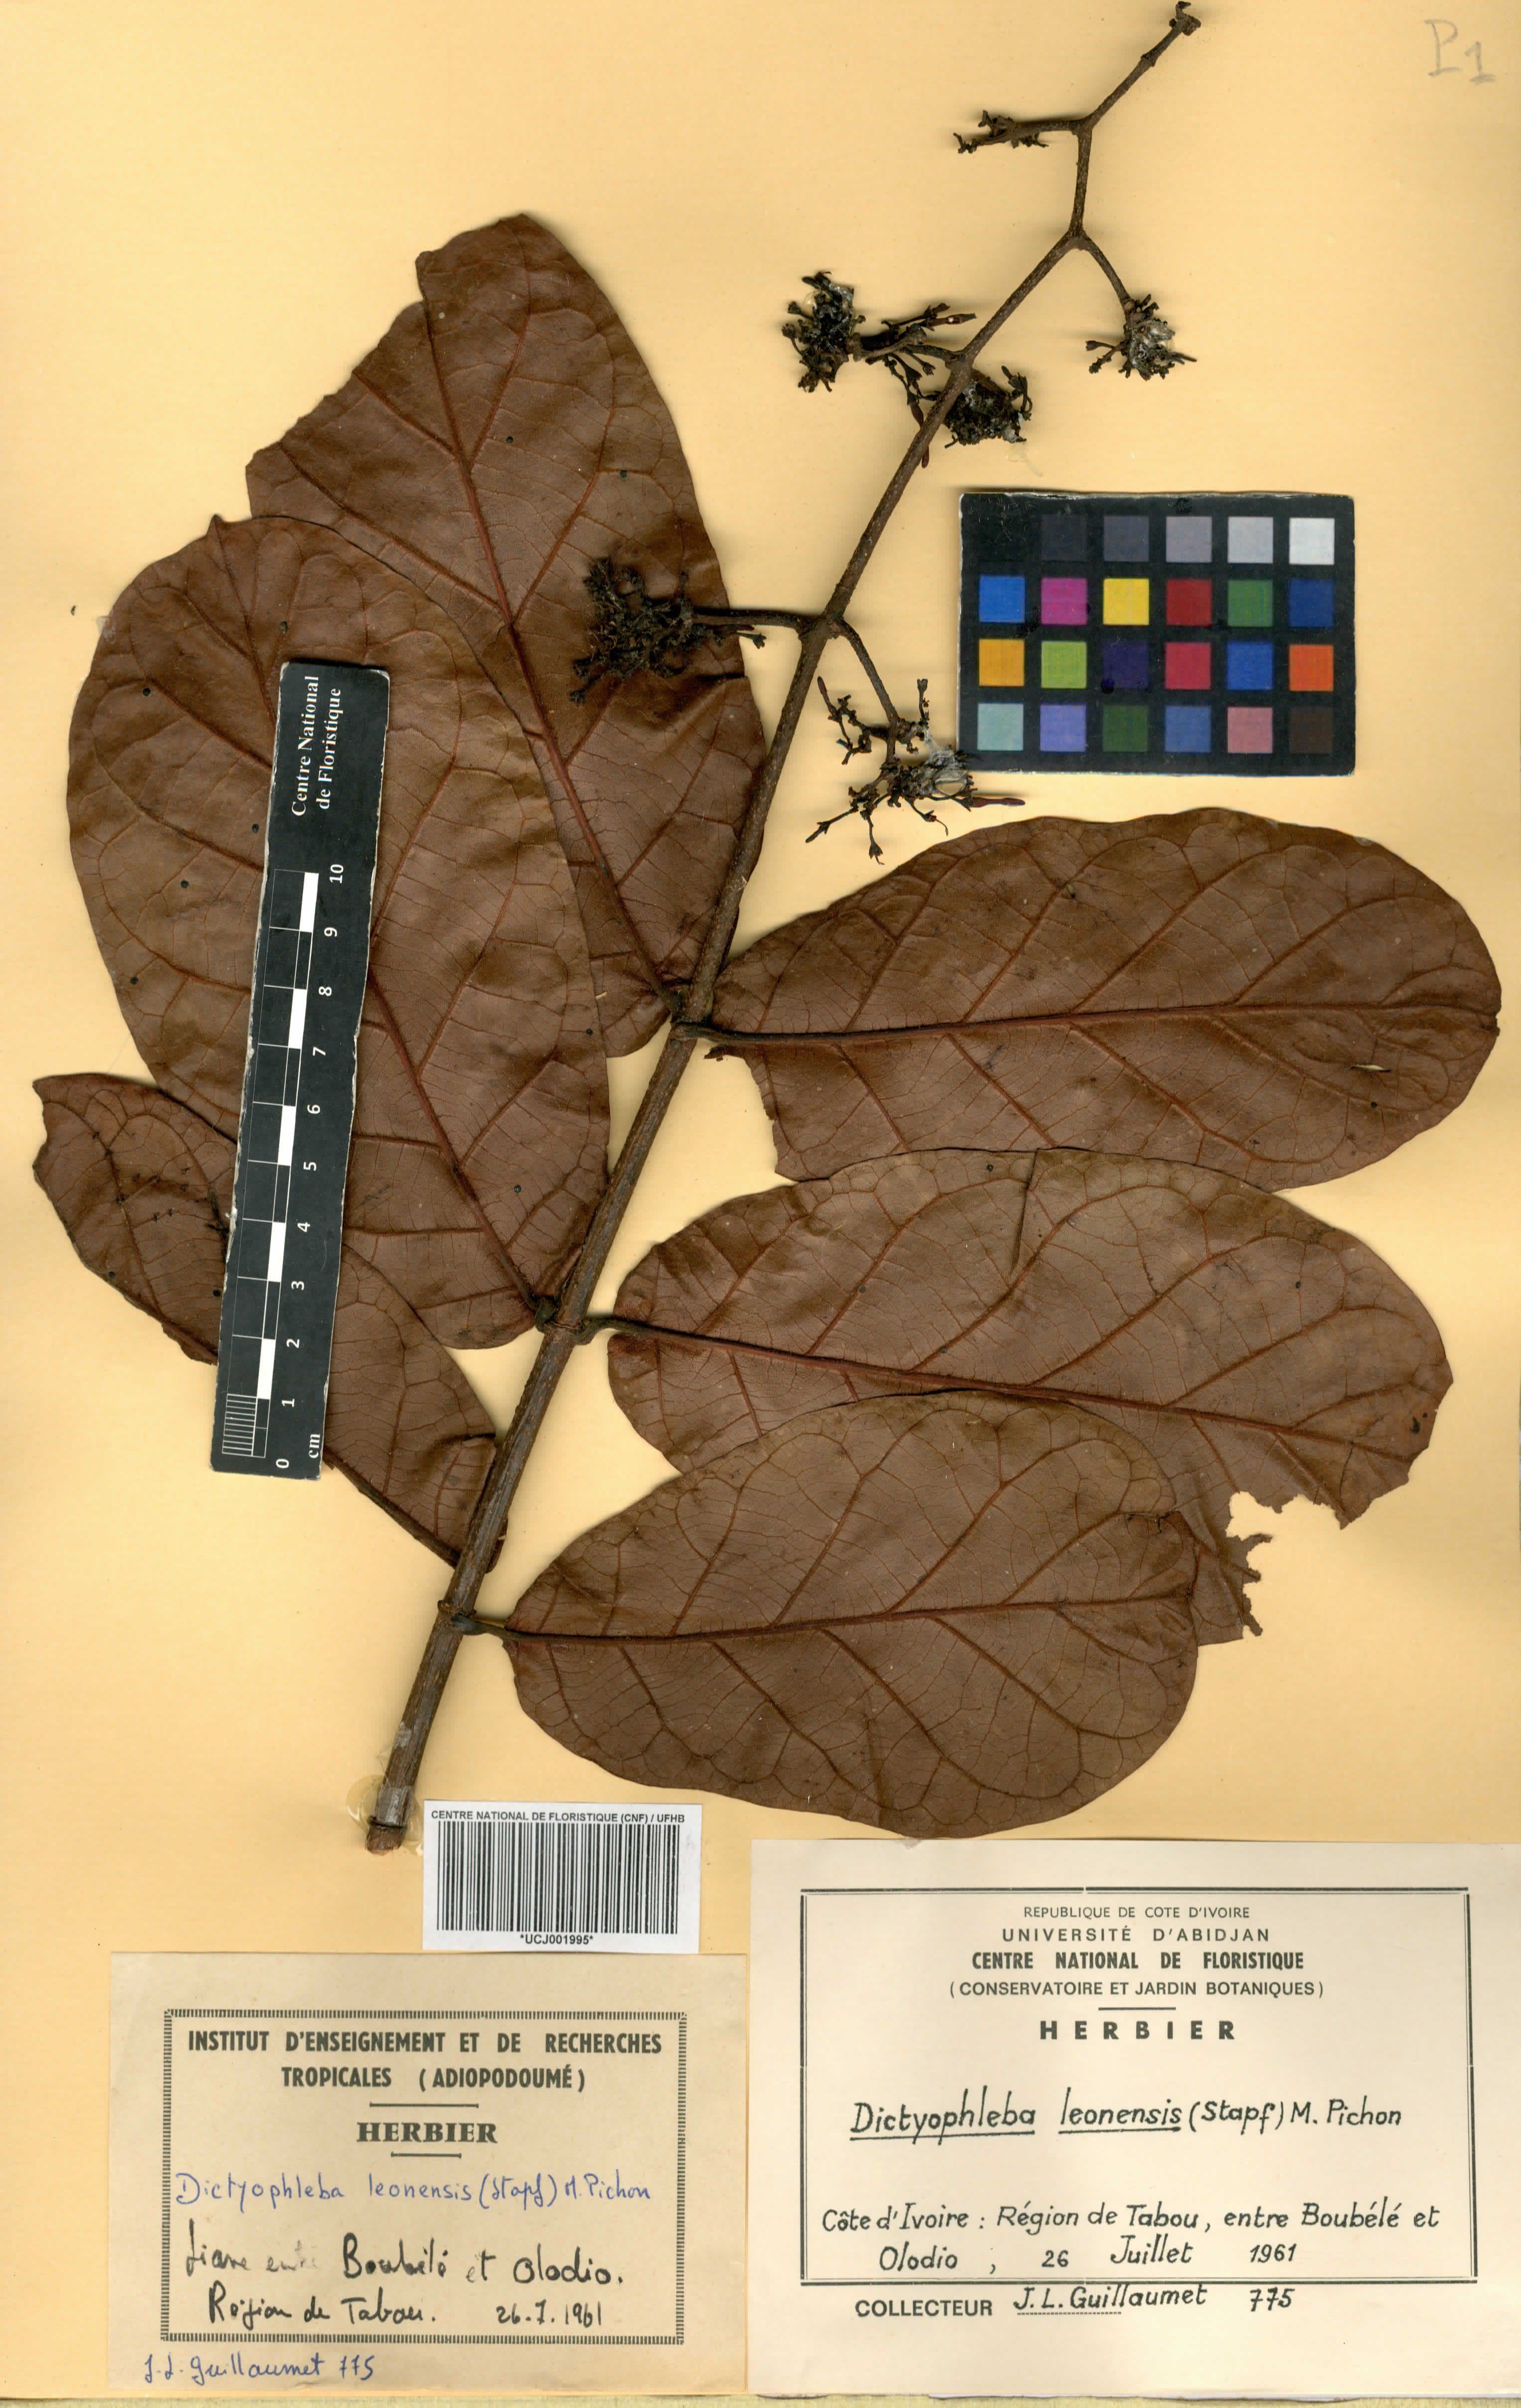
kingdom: Plantae
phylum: Tracheophyta
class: Magnoliopsida
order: Gentianales
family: Apocynaceae
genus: Dictyophleba
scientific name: Dictyophleba leonensis
